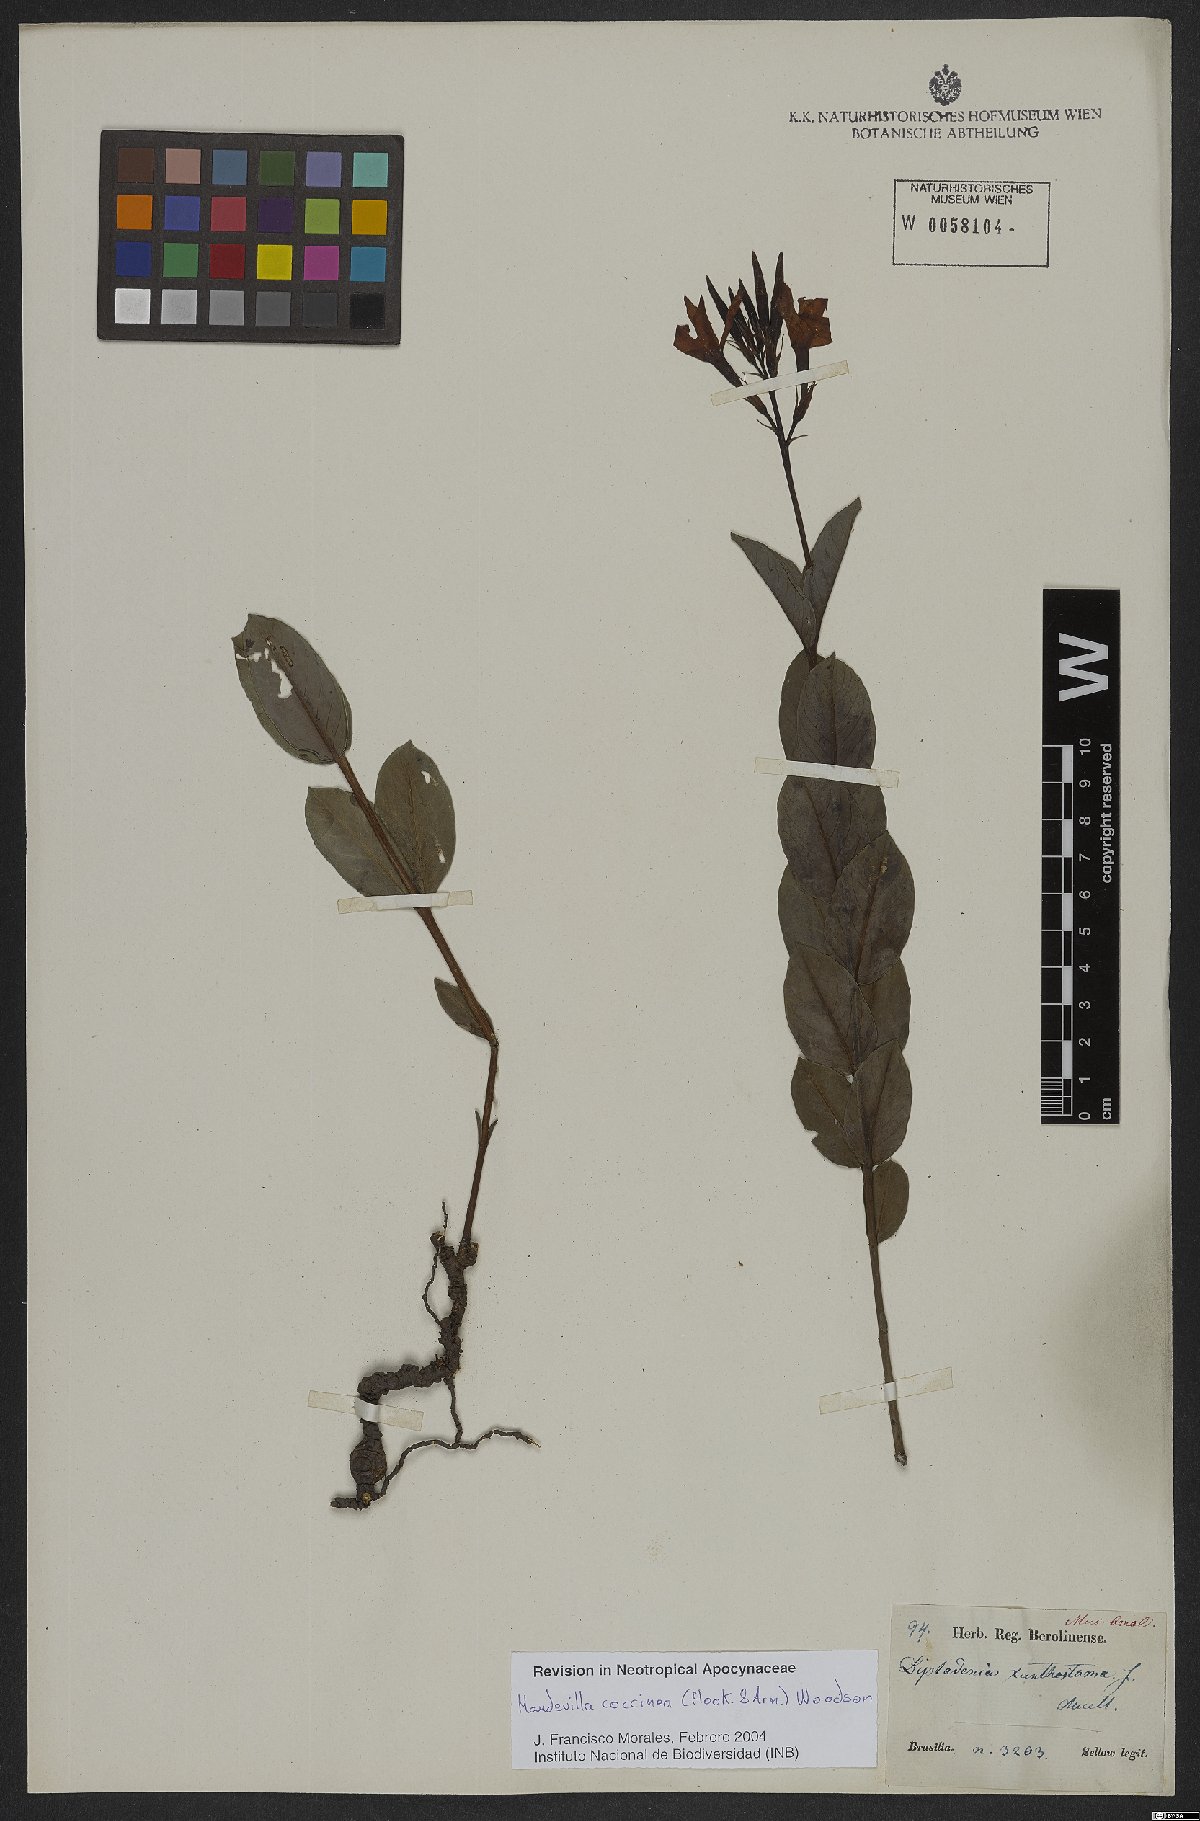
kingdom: Plantae
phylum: Tracheophyta
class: Magnoliopsida
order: Gentianales
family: Apocynaceae
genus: Mandevilla
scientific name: Mandevilla coccinea
